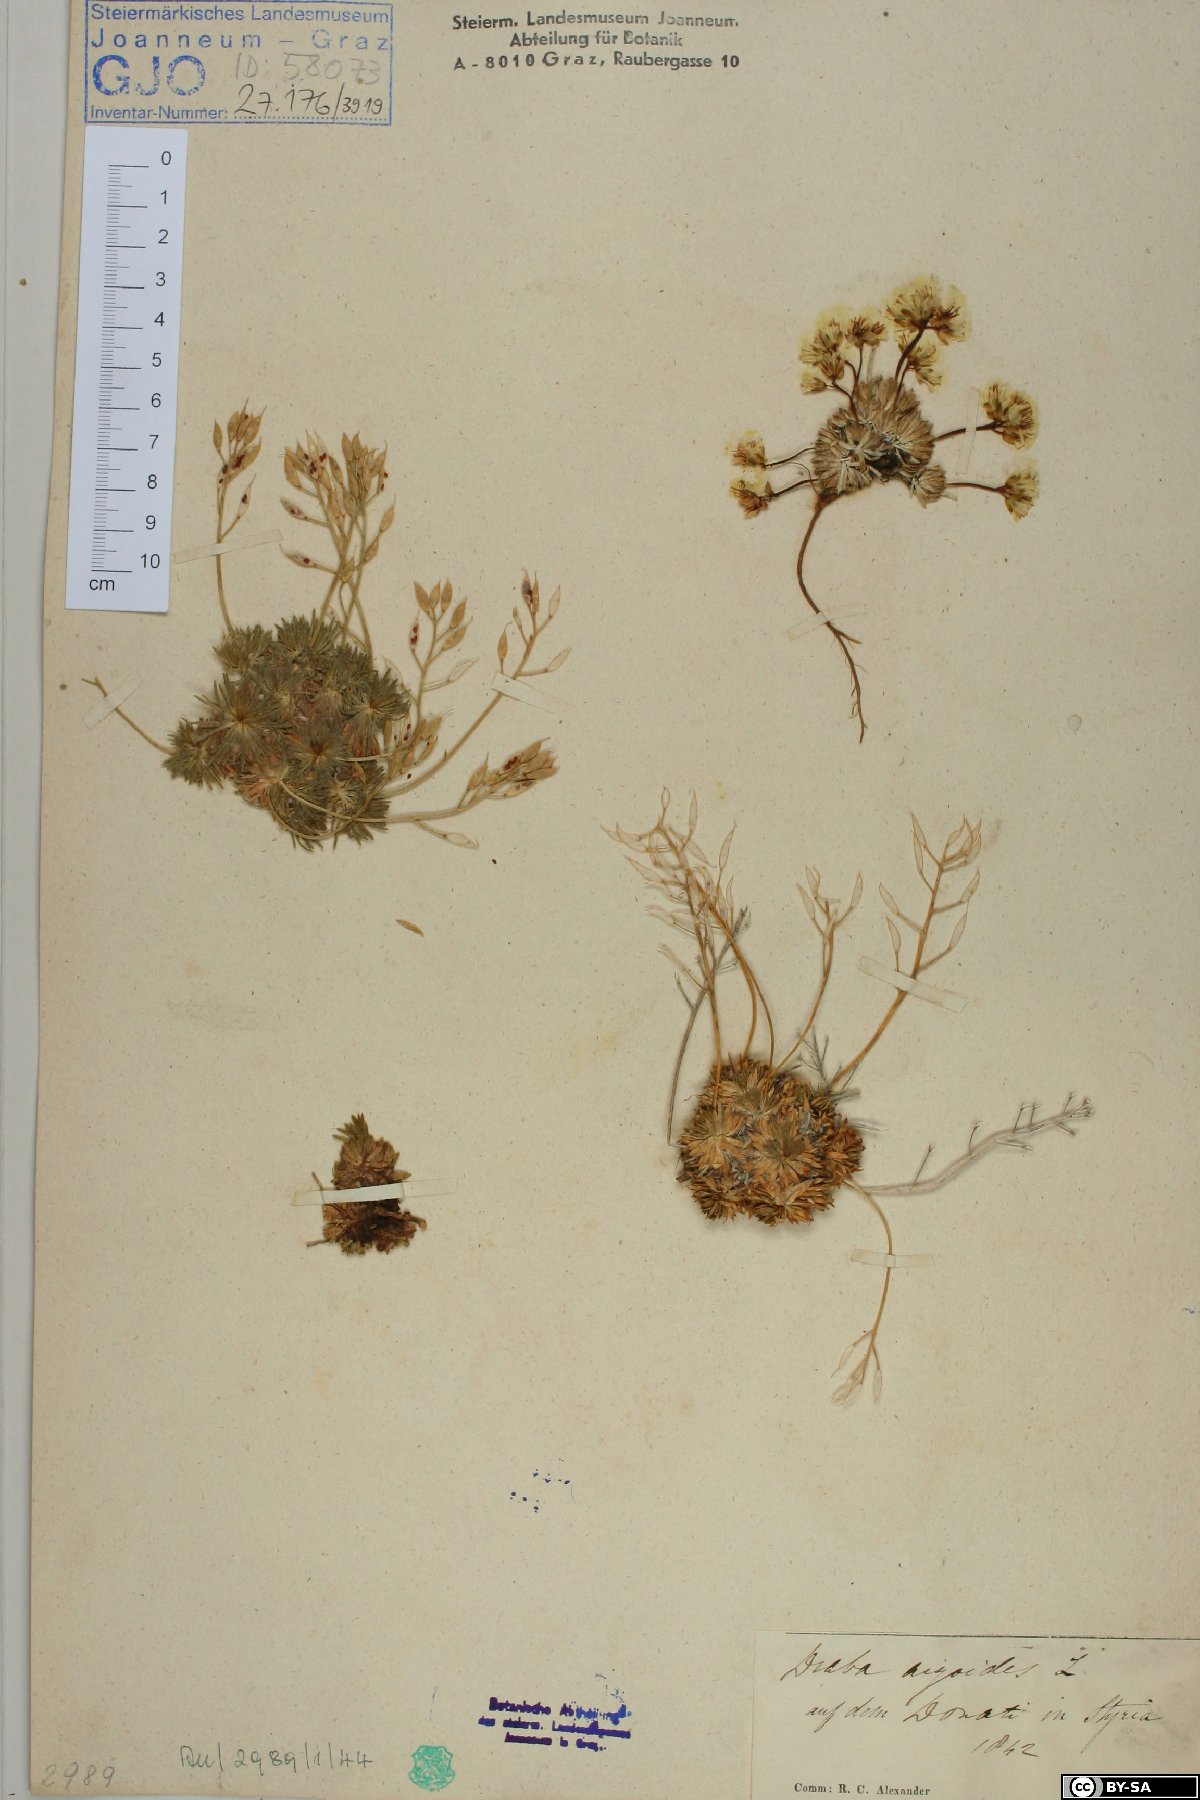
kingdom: Plantae
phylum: Tracheophyta
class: Magnoliopsida
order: Brassicales
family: Brassicaceae
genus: Draba
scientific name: Draba aizoides
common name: Yellow whitlowgrass
